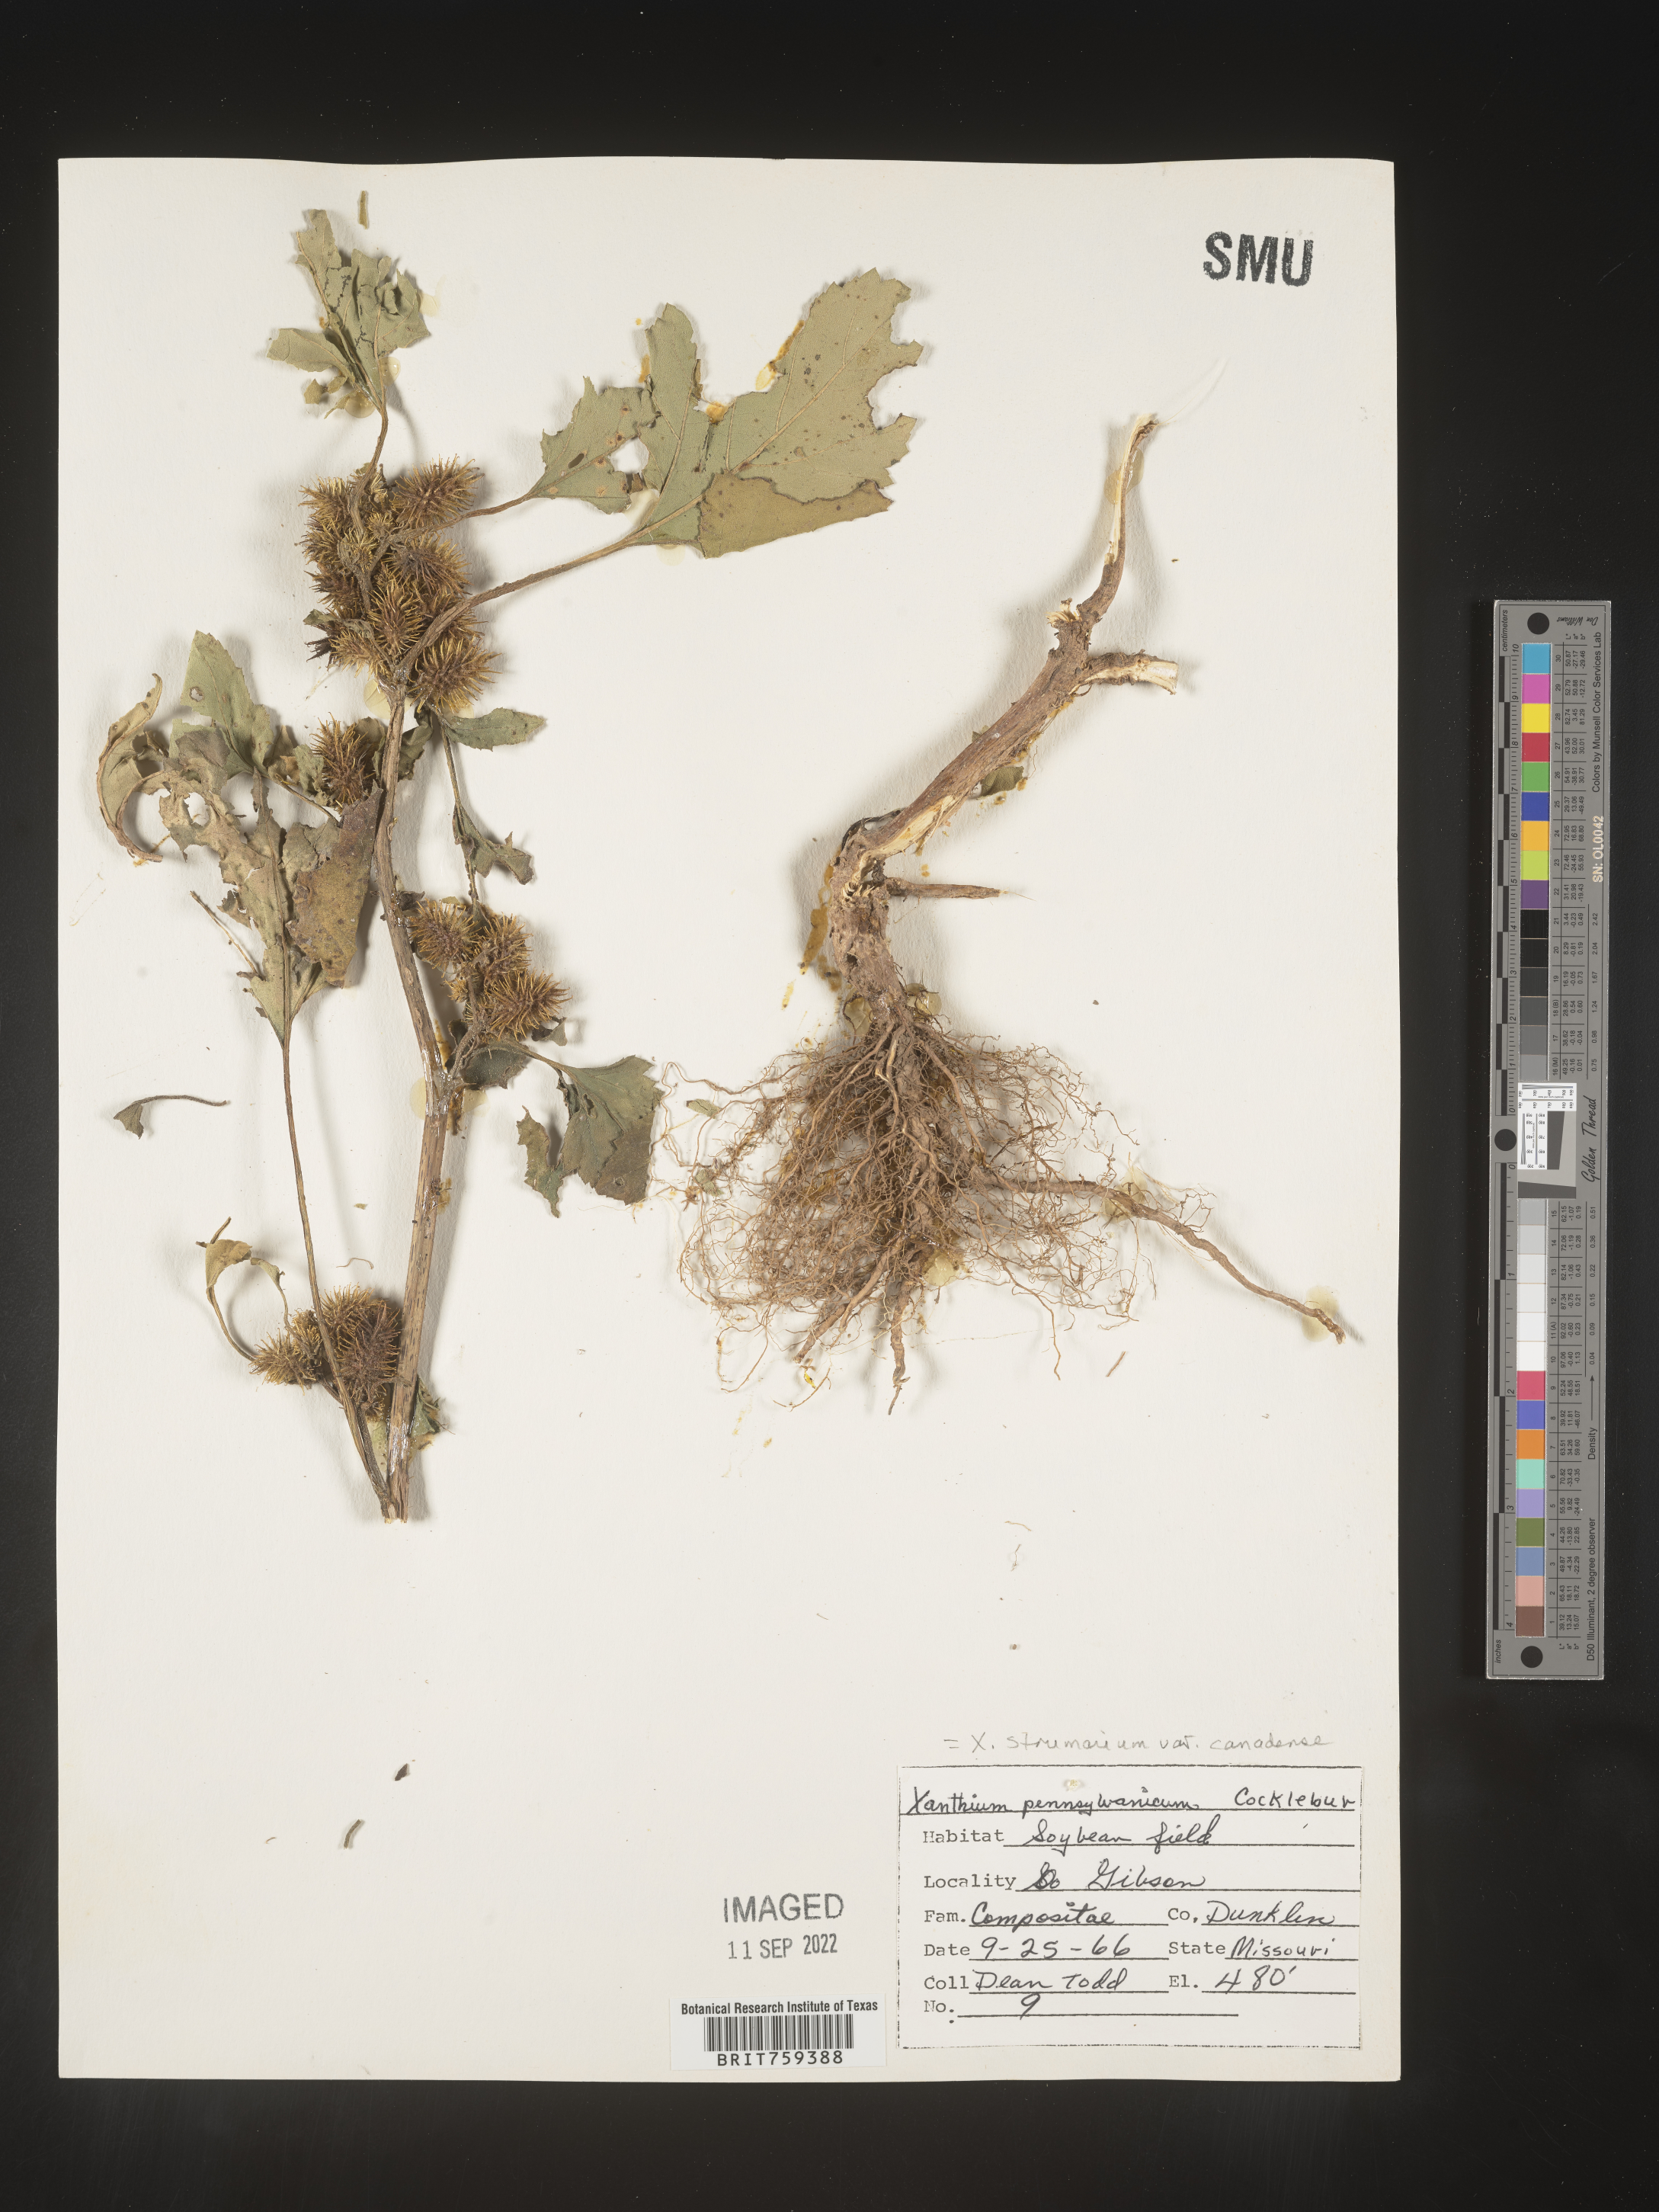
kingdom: Plantae
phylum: Tracheophyta
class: Magnoliopsida
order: Asterales
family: Asteraceae
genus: Xanthium
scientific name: Xanthium orientale
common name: Californian burr
